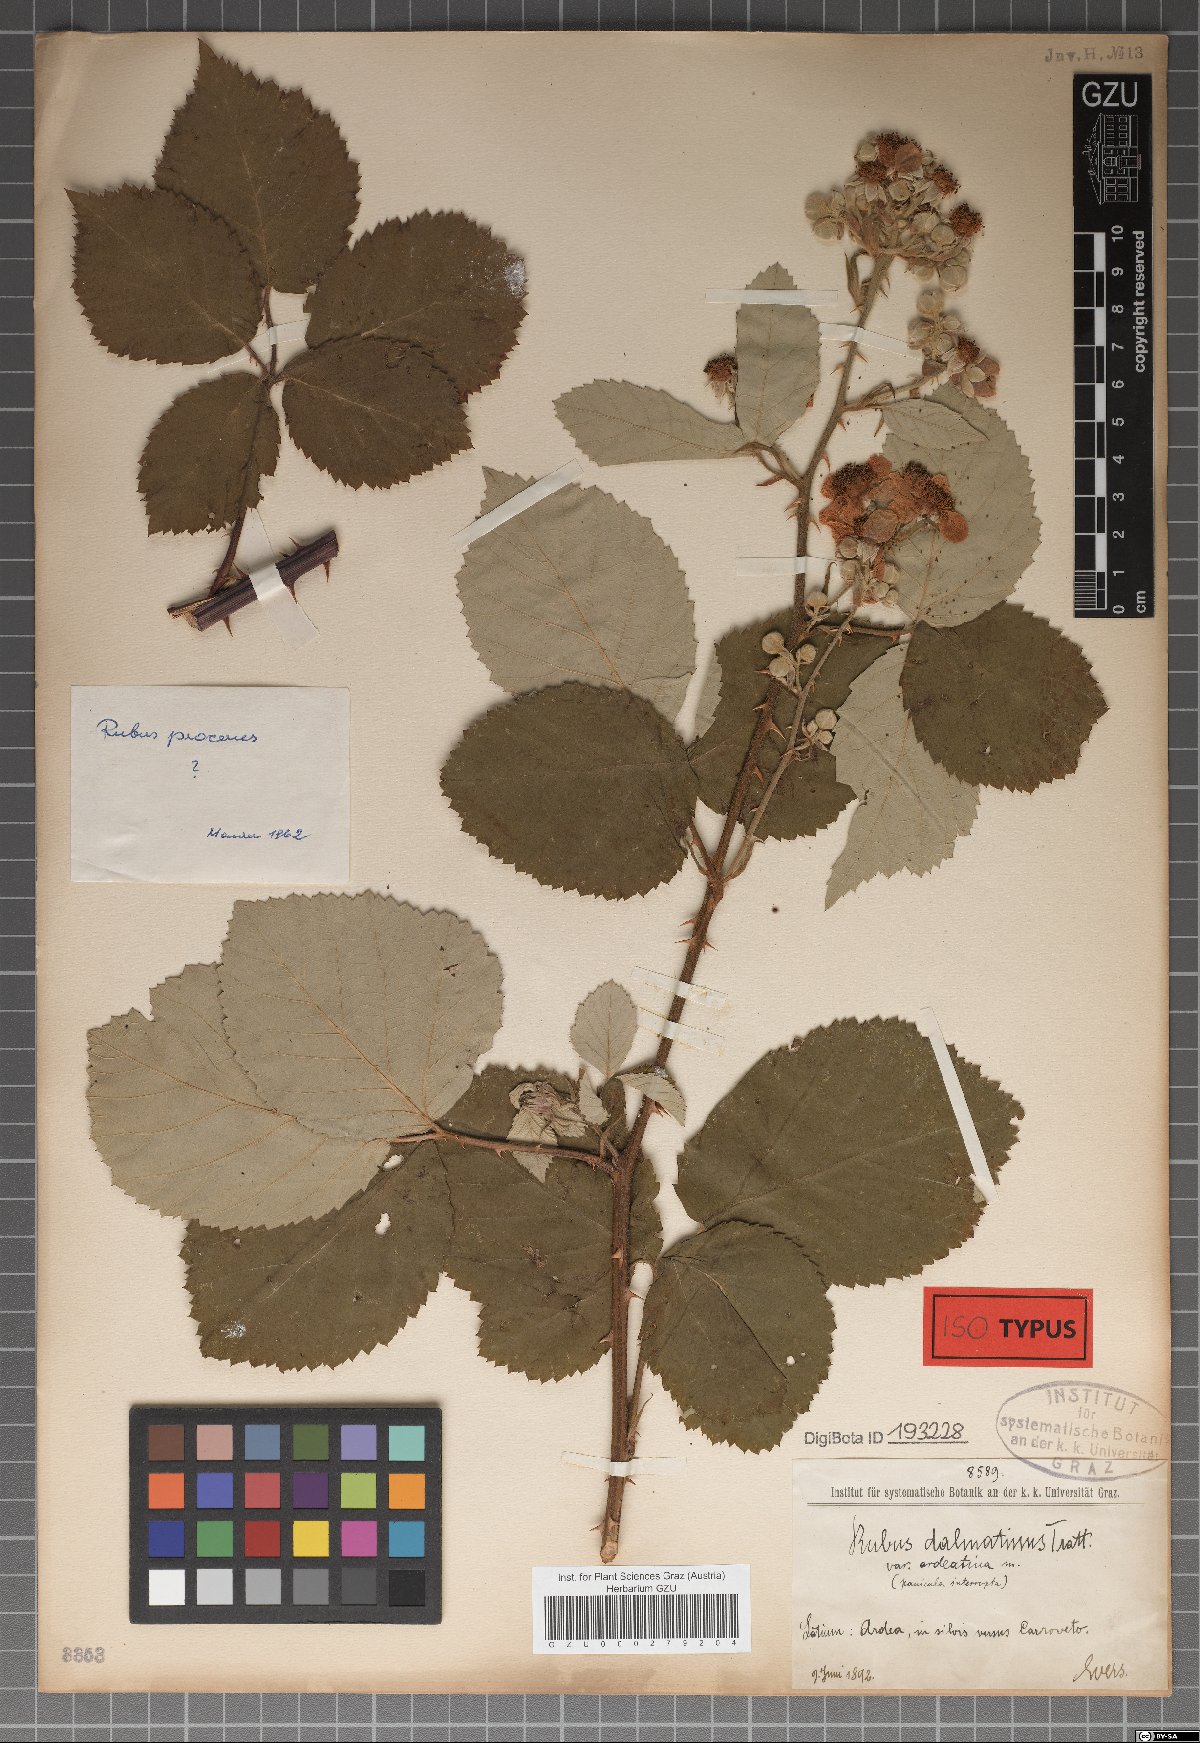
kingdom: Plantae
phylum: Tracheophyta
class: Magnoliopsida
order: Rosales
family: Rosaceae
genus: Rubus
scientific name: Rubus sanctus
